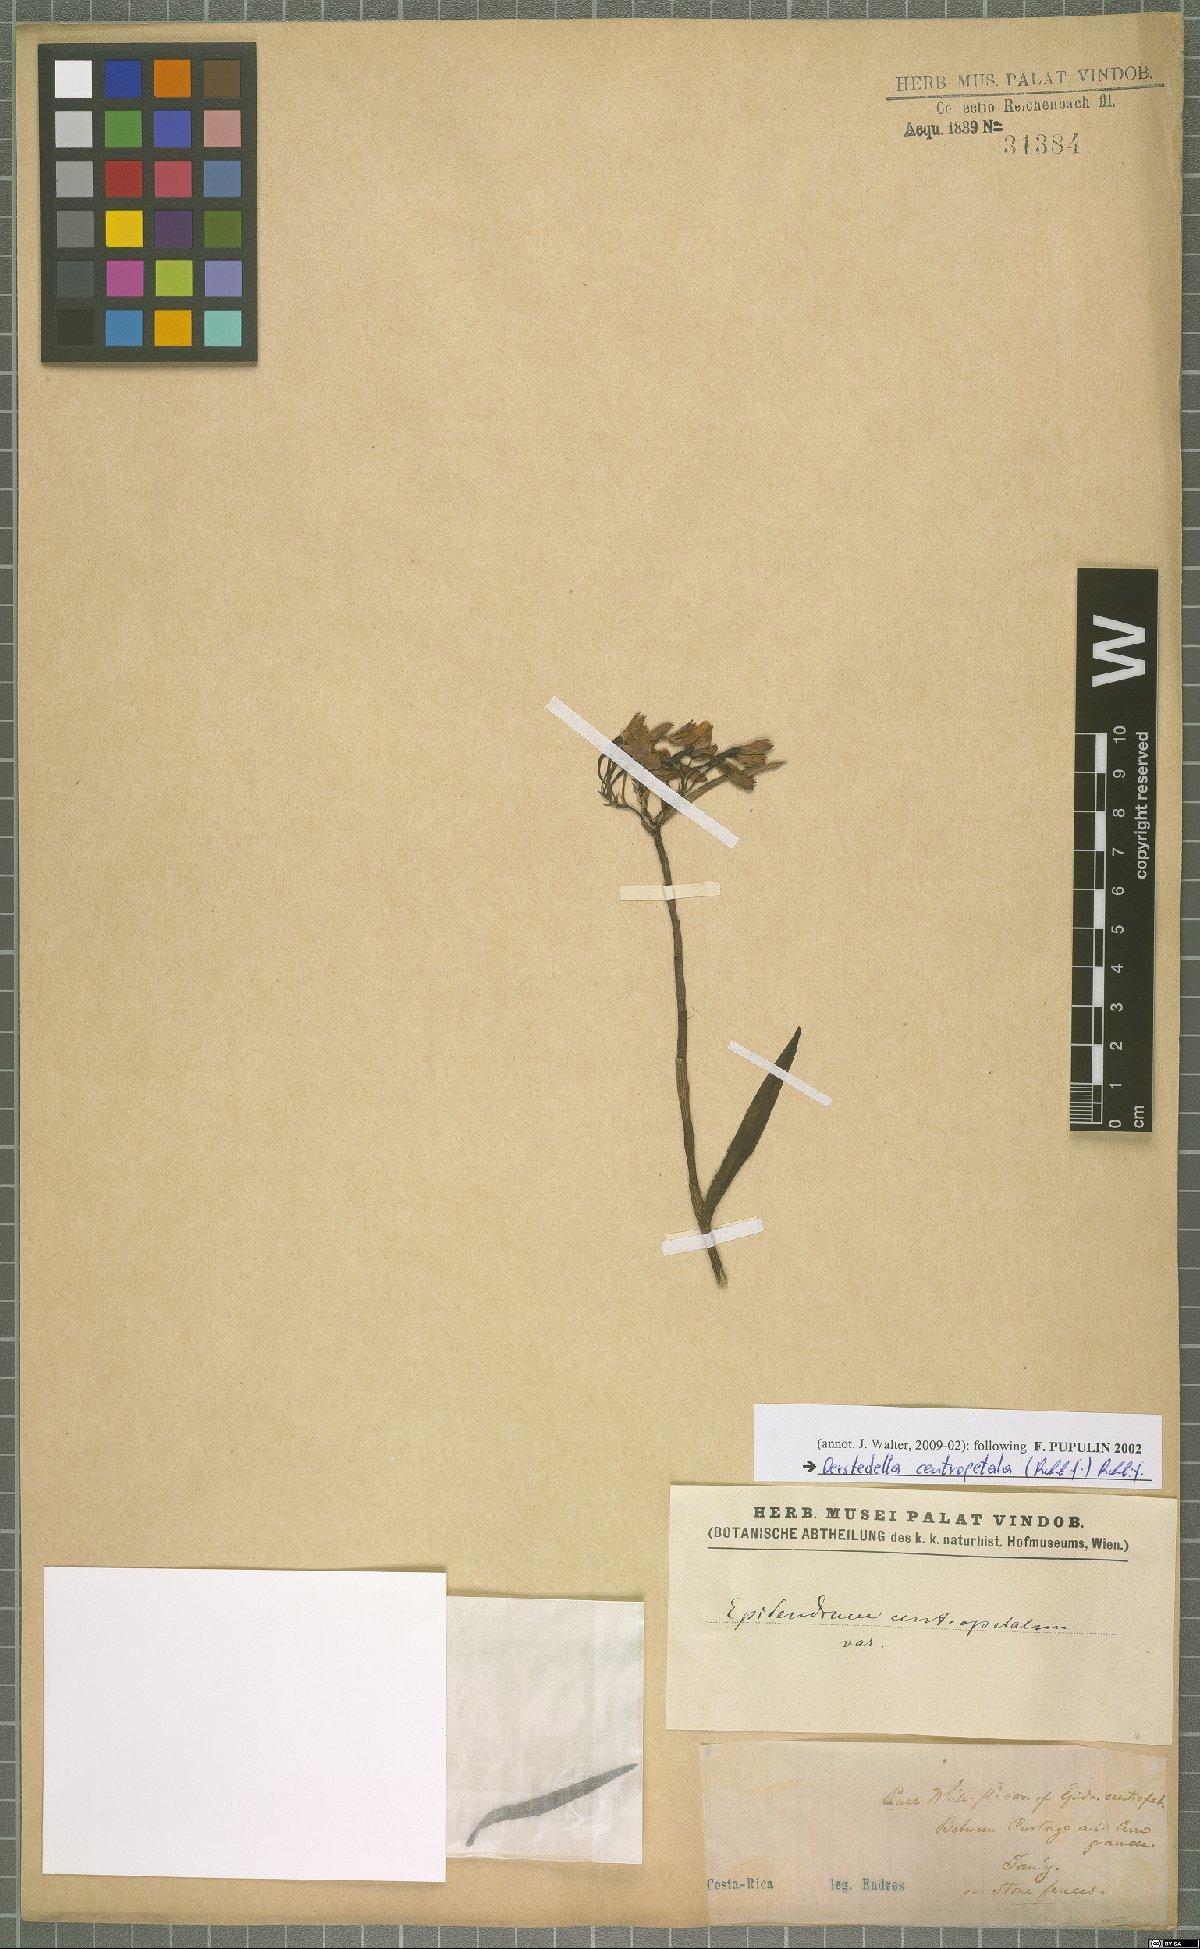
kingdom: Plantae
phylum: Tracheophyta
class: Liliopsida
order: Asparagales
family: Orchidaceae
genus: Epidendrum
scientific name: Epidendrum centropetalum
